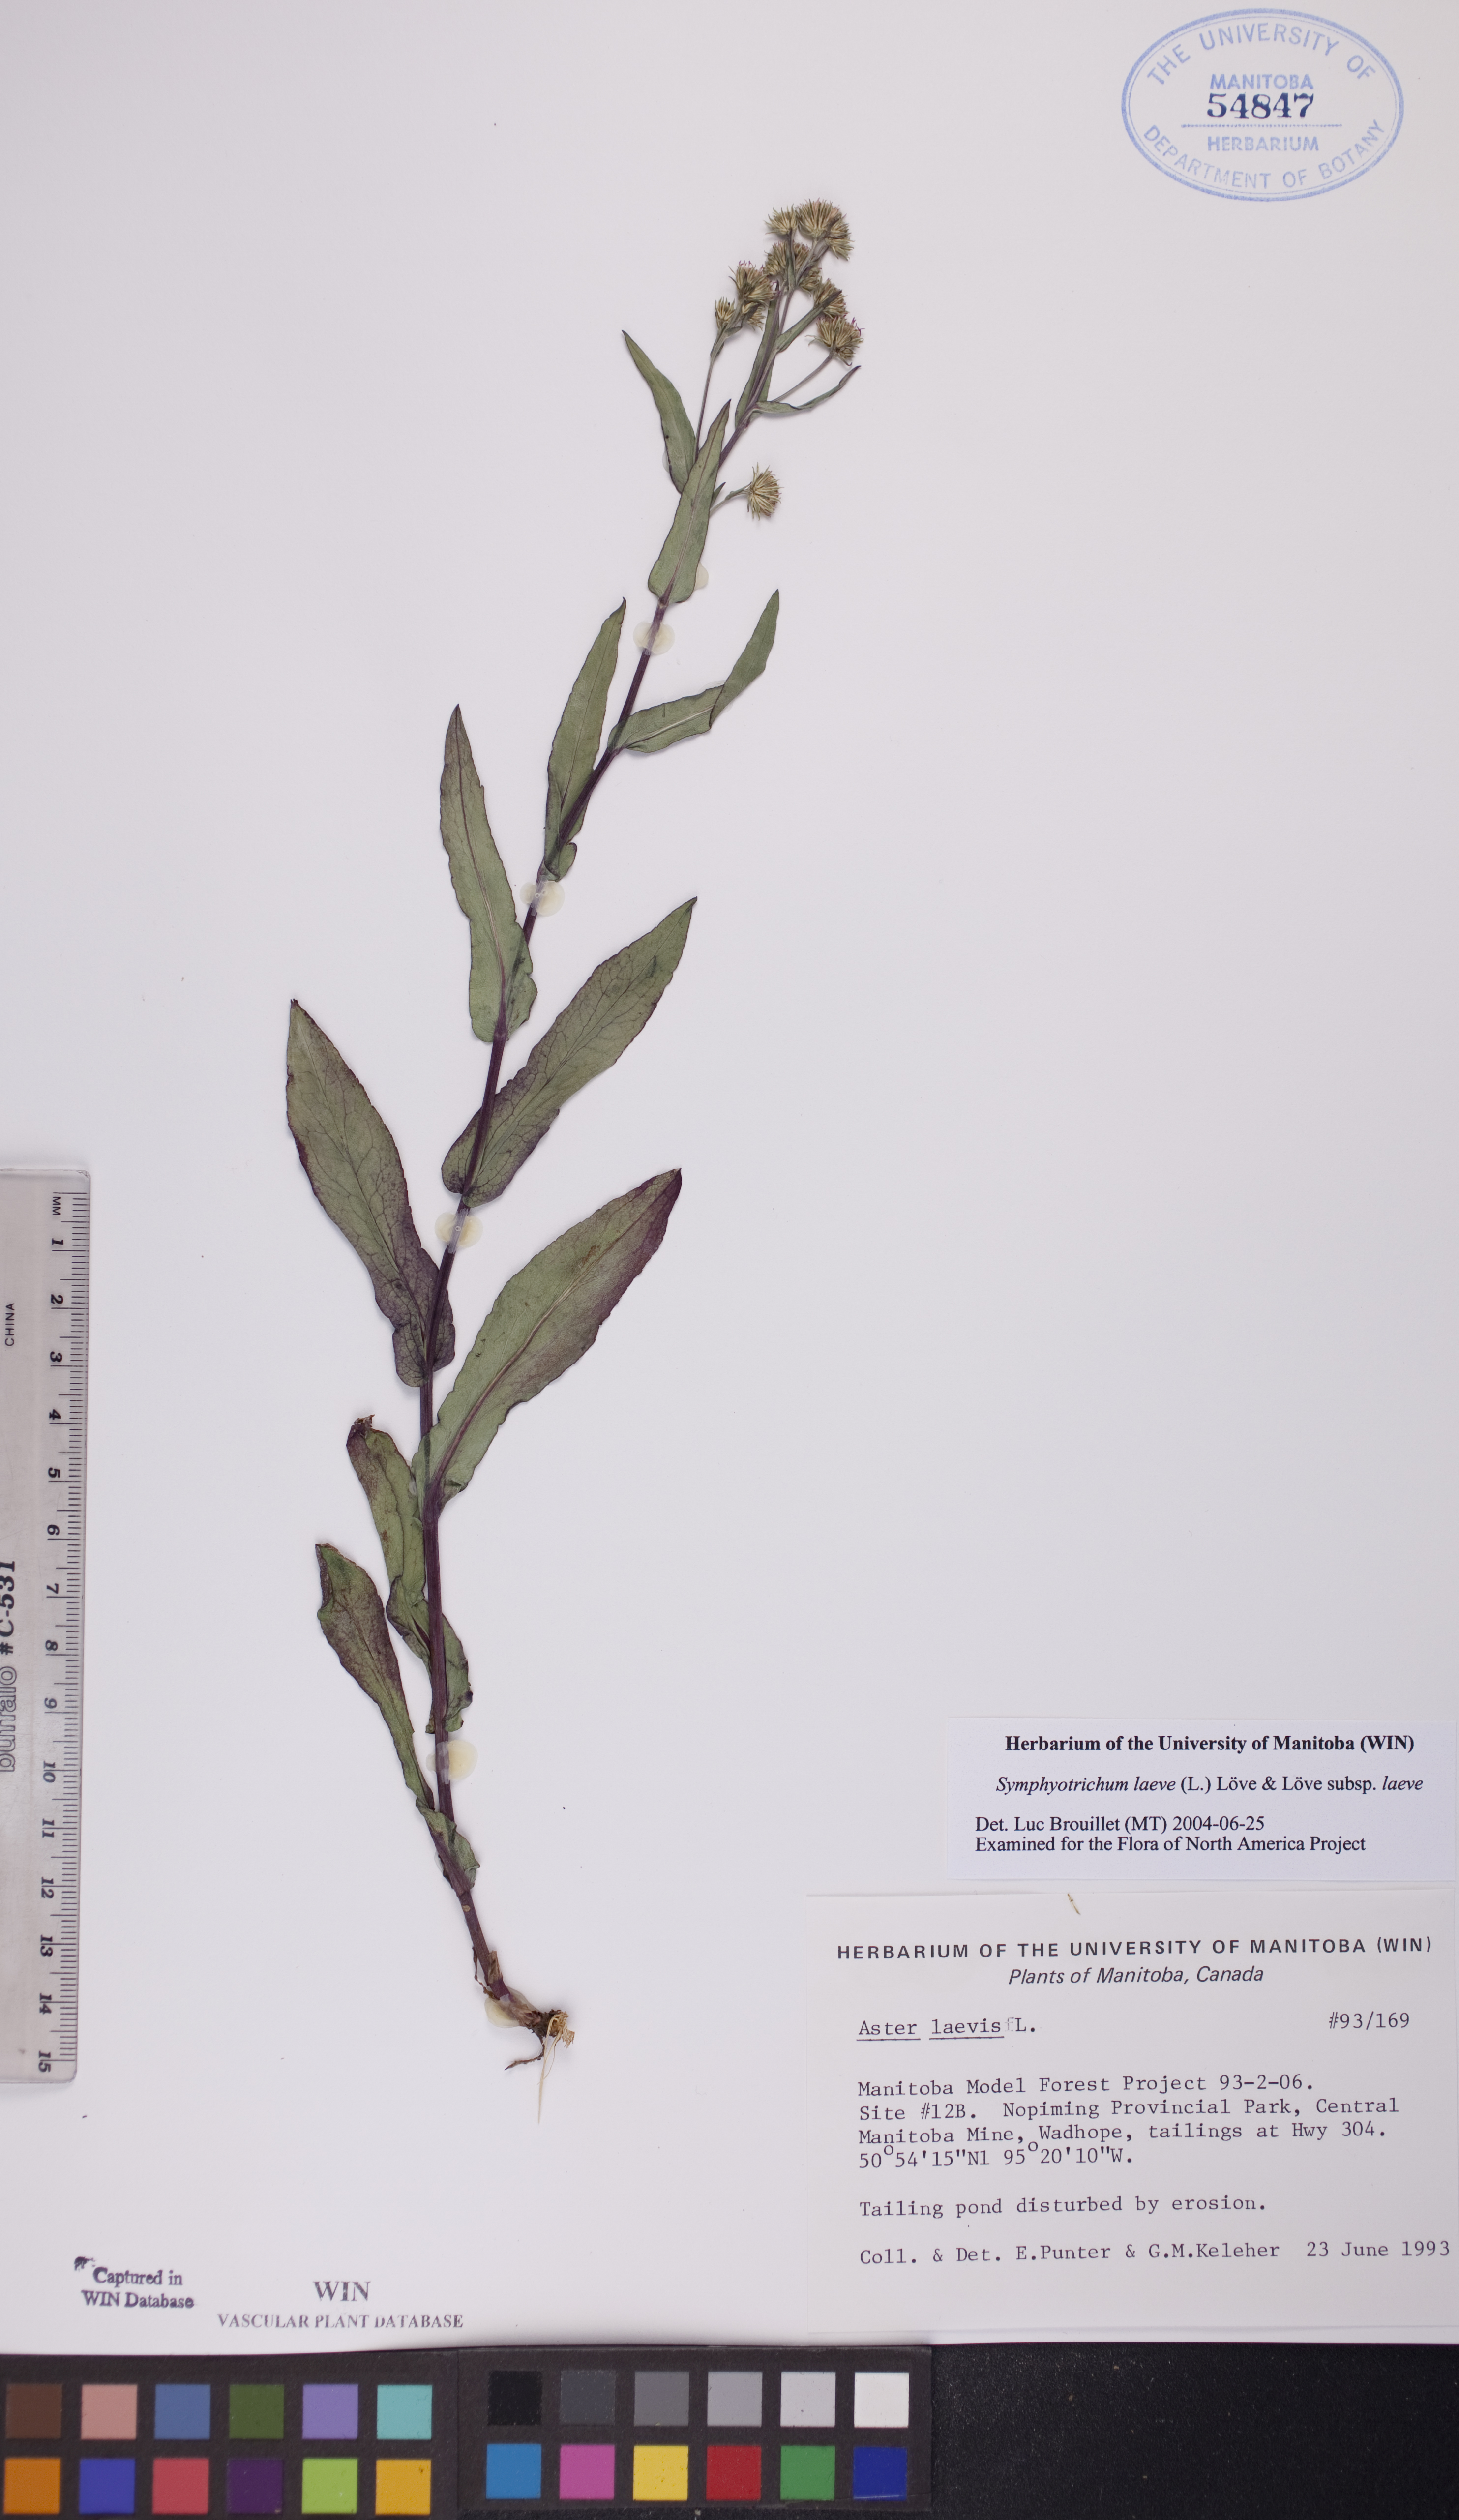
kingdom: Plantae
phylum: Tracheophyta
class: Magnoliopsida
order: Asterales
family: Asteraceae
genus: Symphyotrichum
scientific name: Symphyotrichum laeve
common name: Glaucous aster
